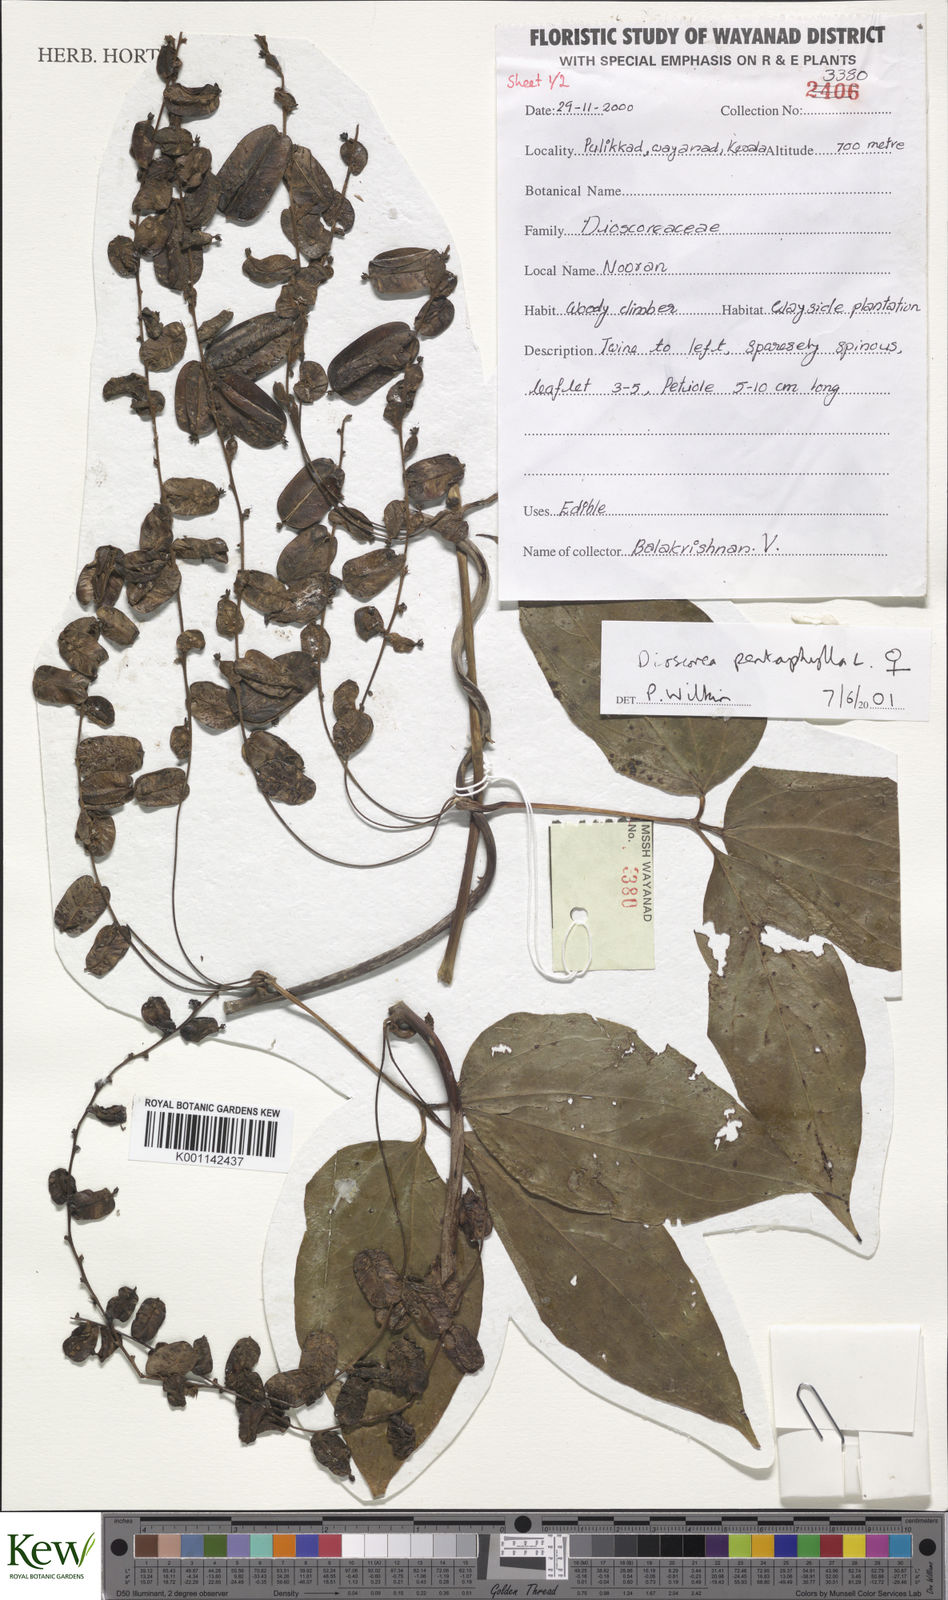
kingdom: Plantae
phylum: Tracheophyta
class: Liliopsida
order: Dioscoreales
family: Dioscoreaceae
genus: Dioscorea
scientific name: Dioscorea pentaphylla
